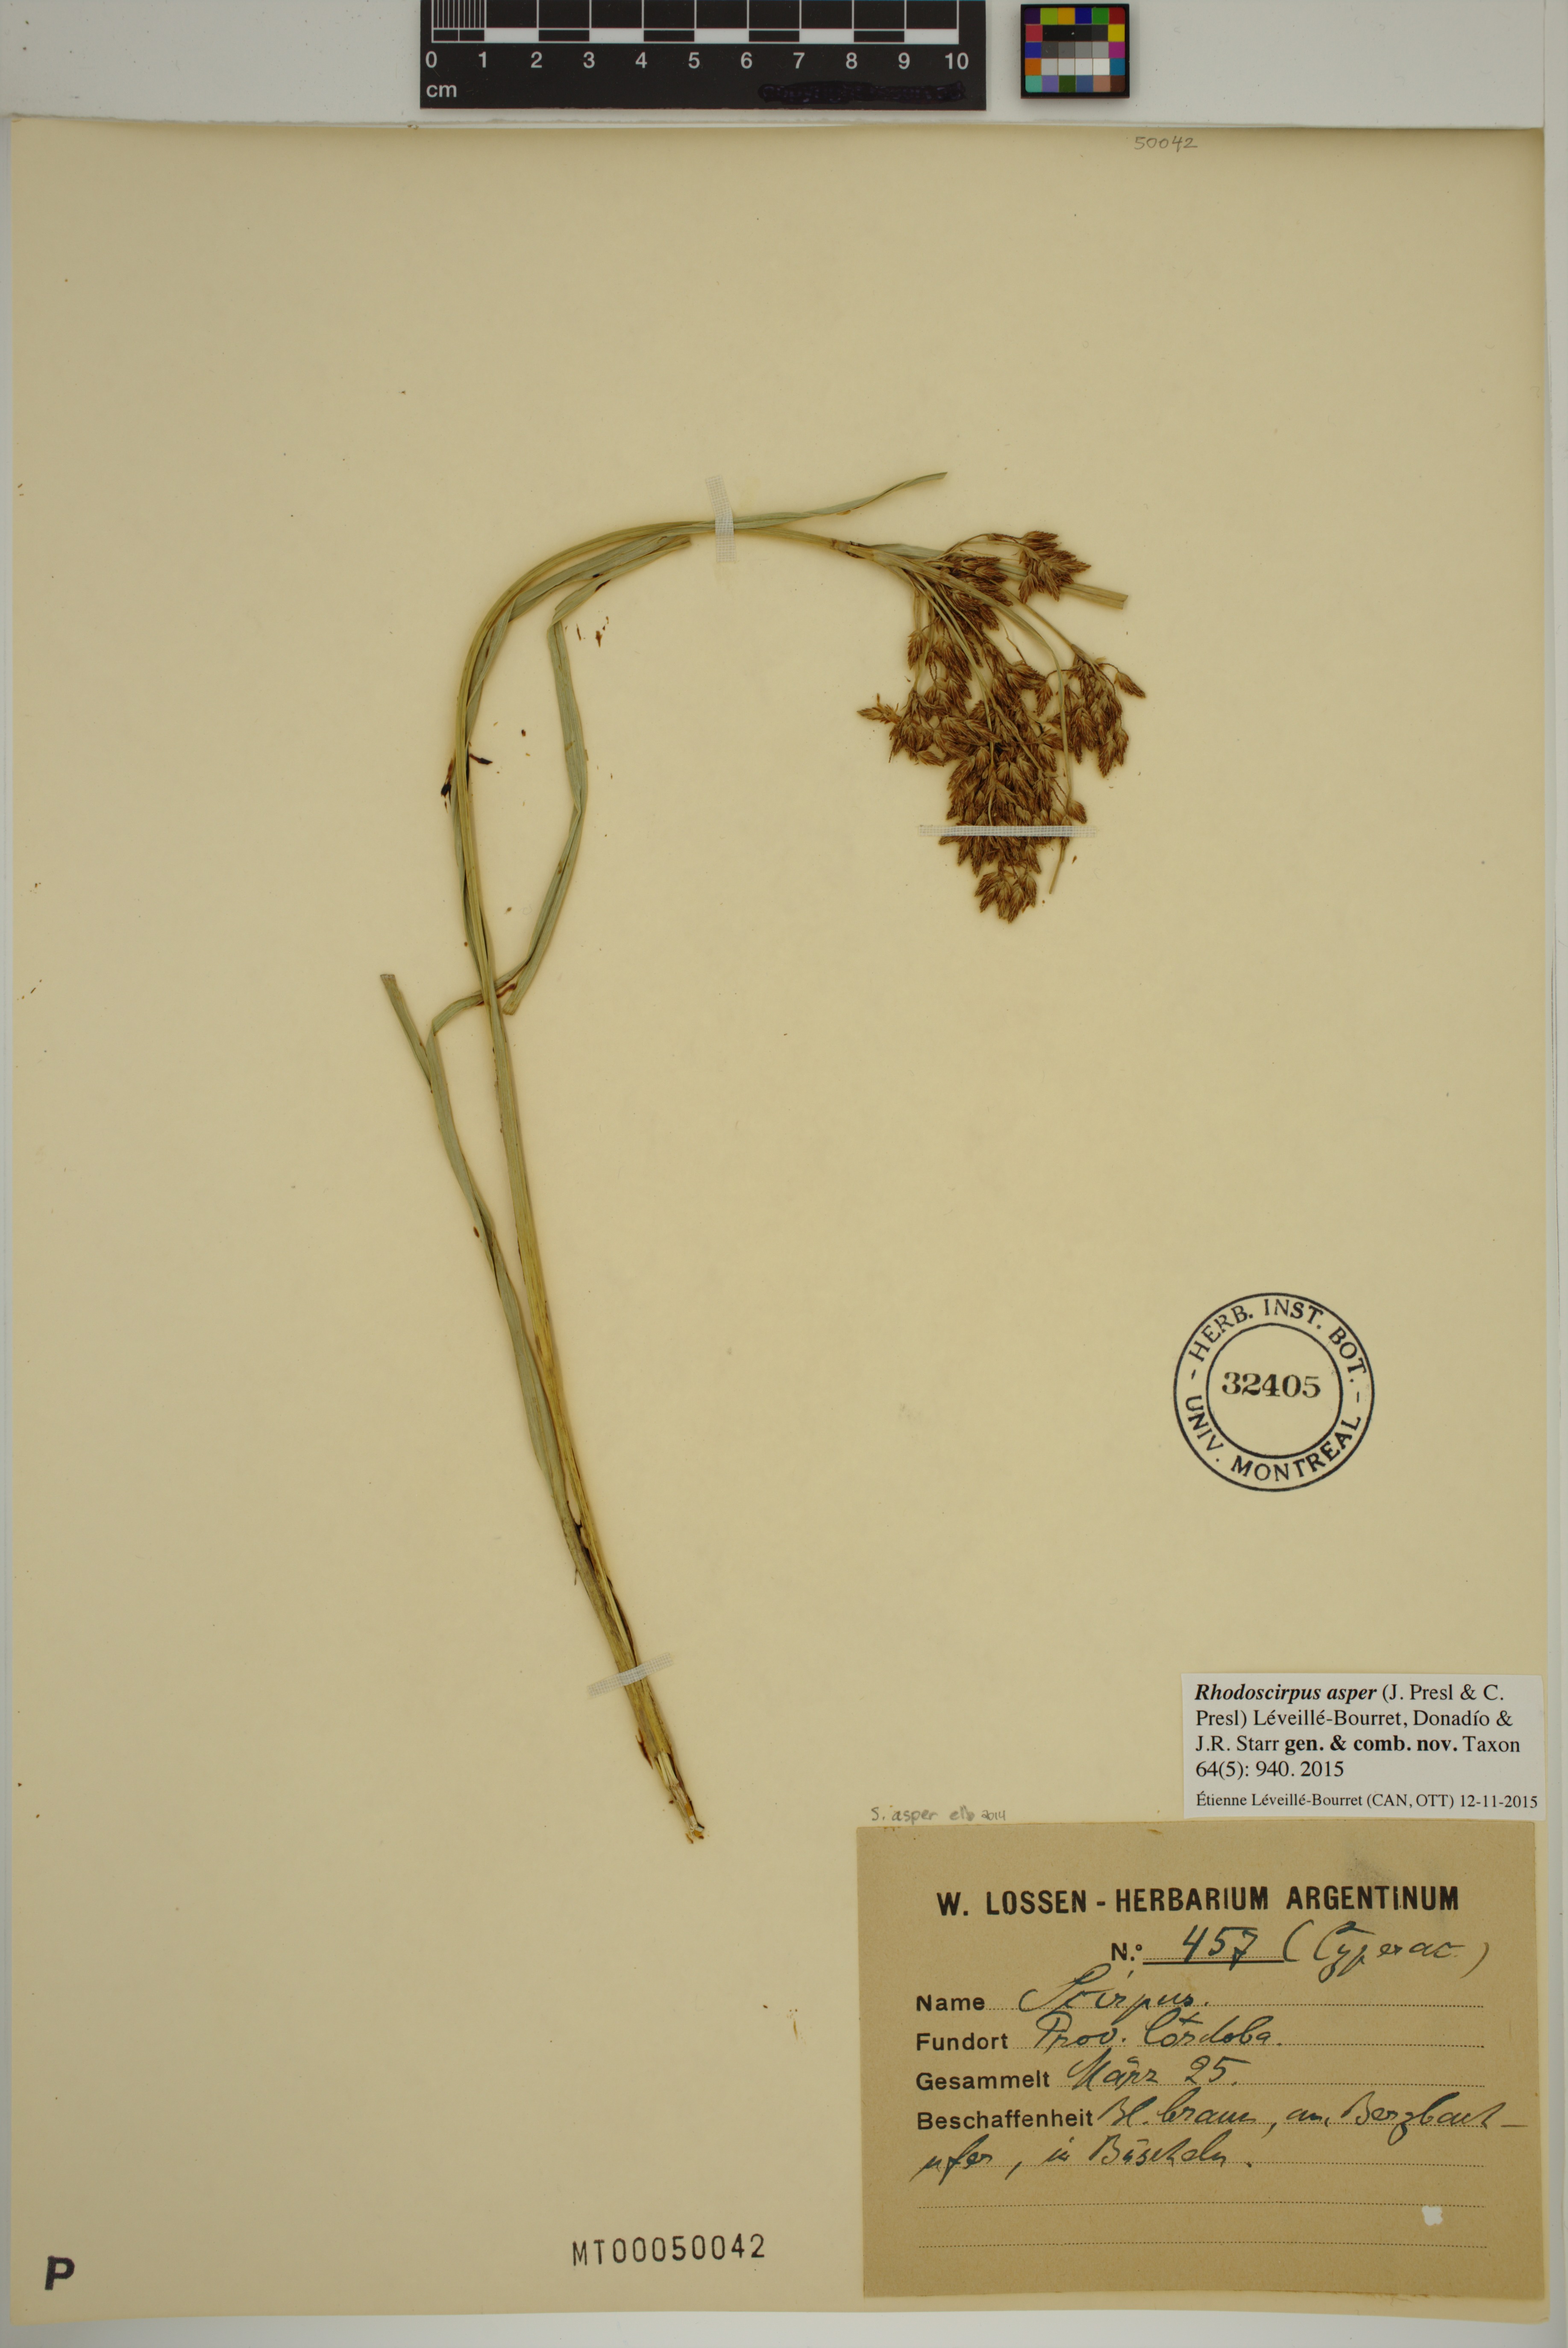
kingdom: Plantae
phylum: Tracheophyta
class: Liliopsida
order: Poales
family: Cyperaceae
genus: Rhodoscirpus
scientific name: Rhodoscirpus asper
